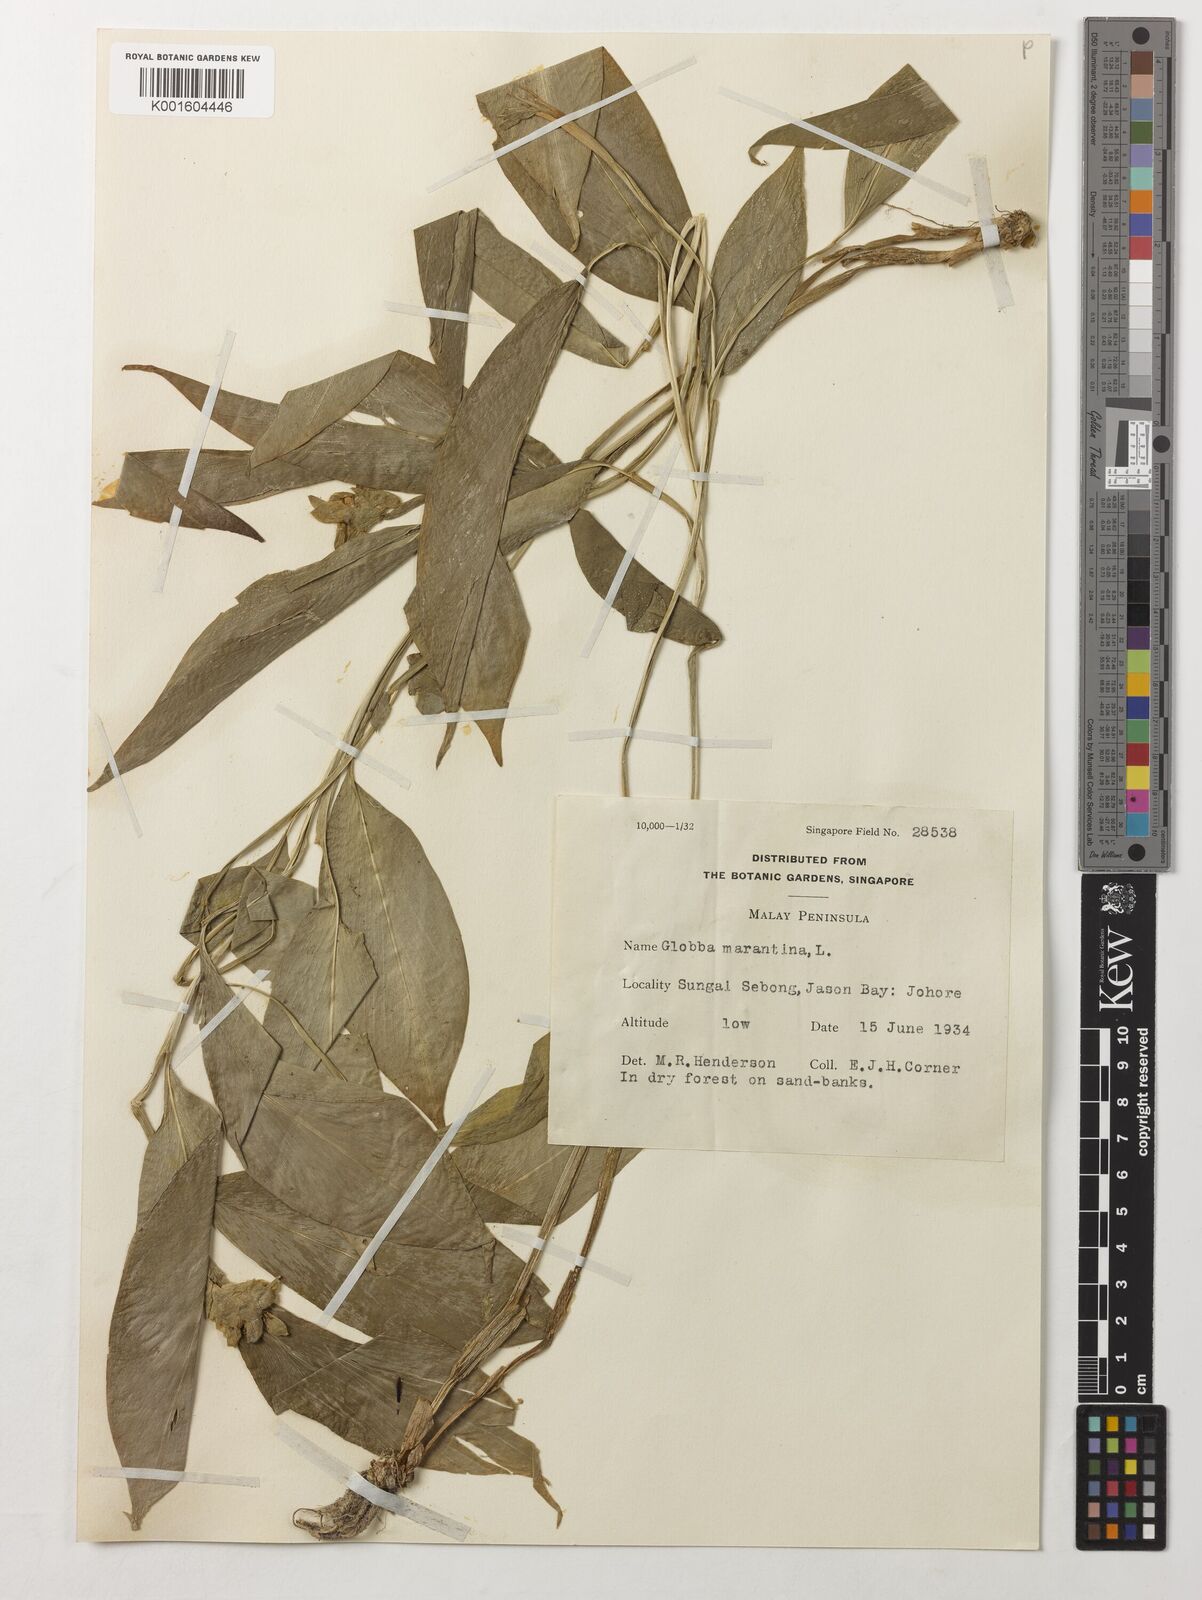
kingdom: Plantae
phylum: Tracheophyta
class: Liliopsida
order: Zingiberales
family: Zingiberaceae
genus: Globba
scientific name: Globba marantina
